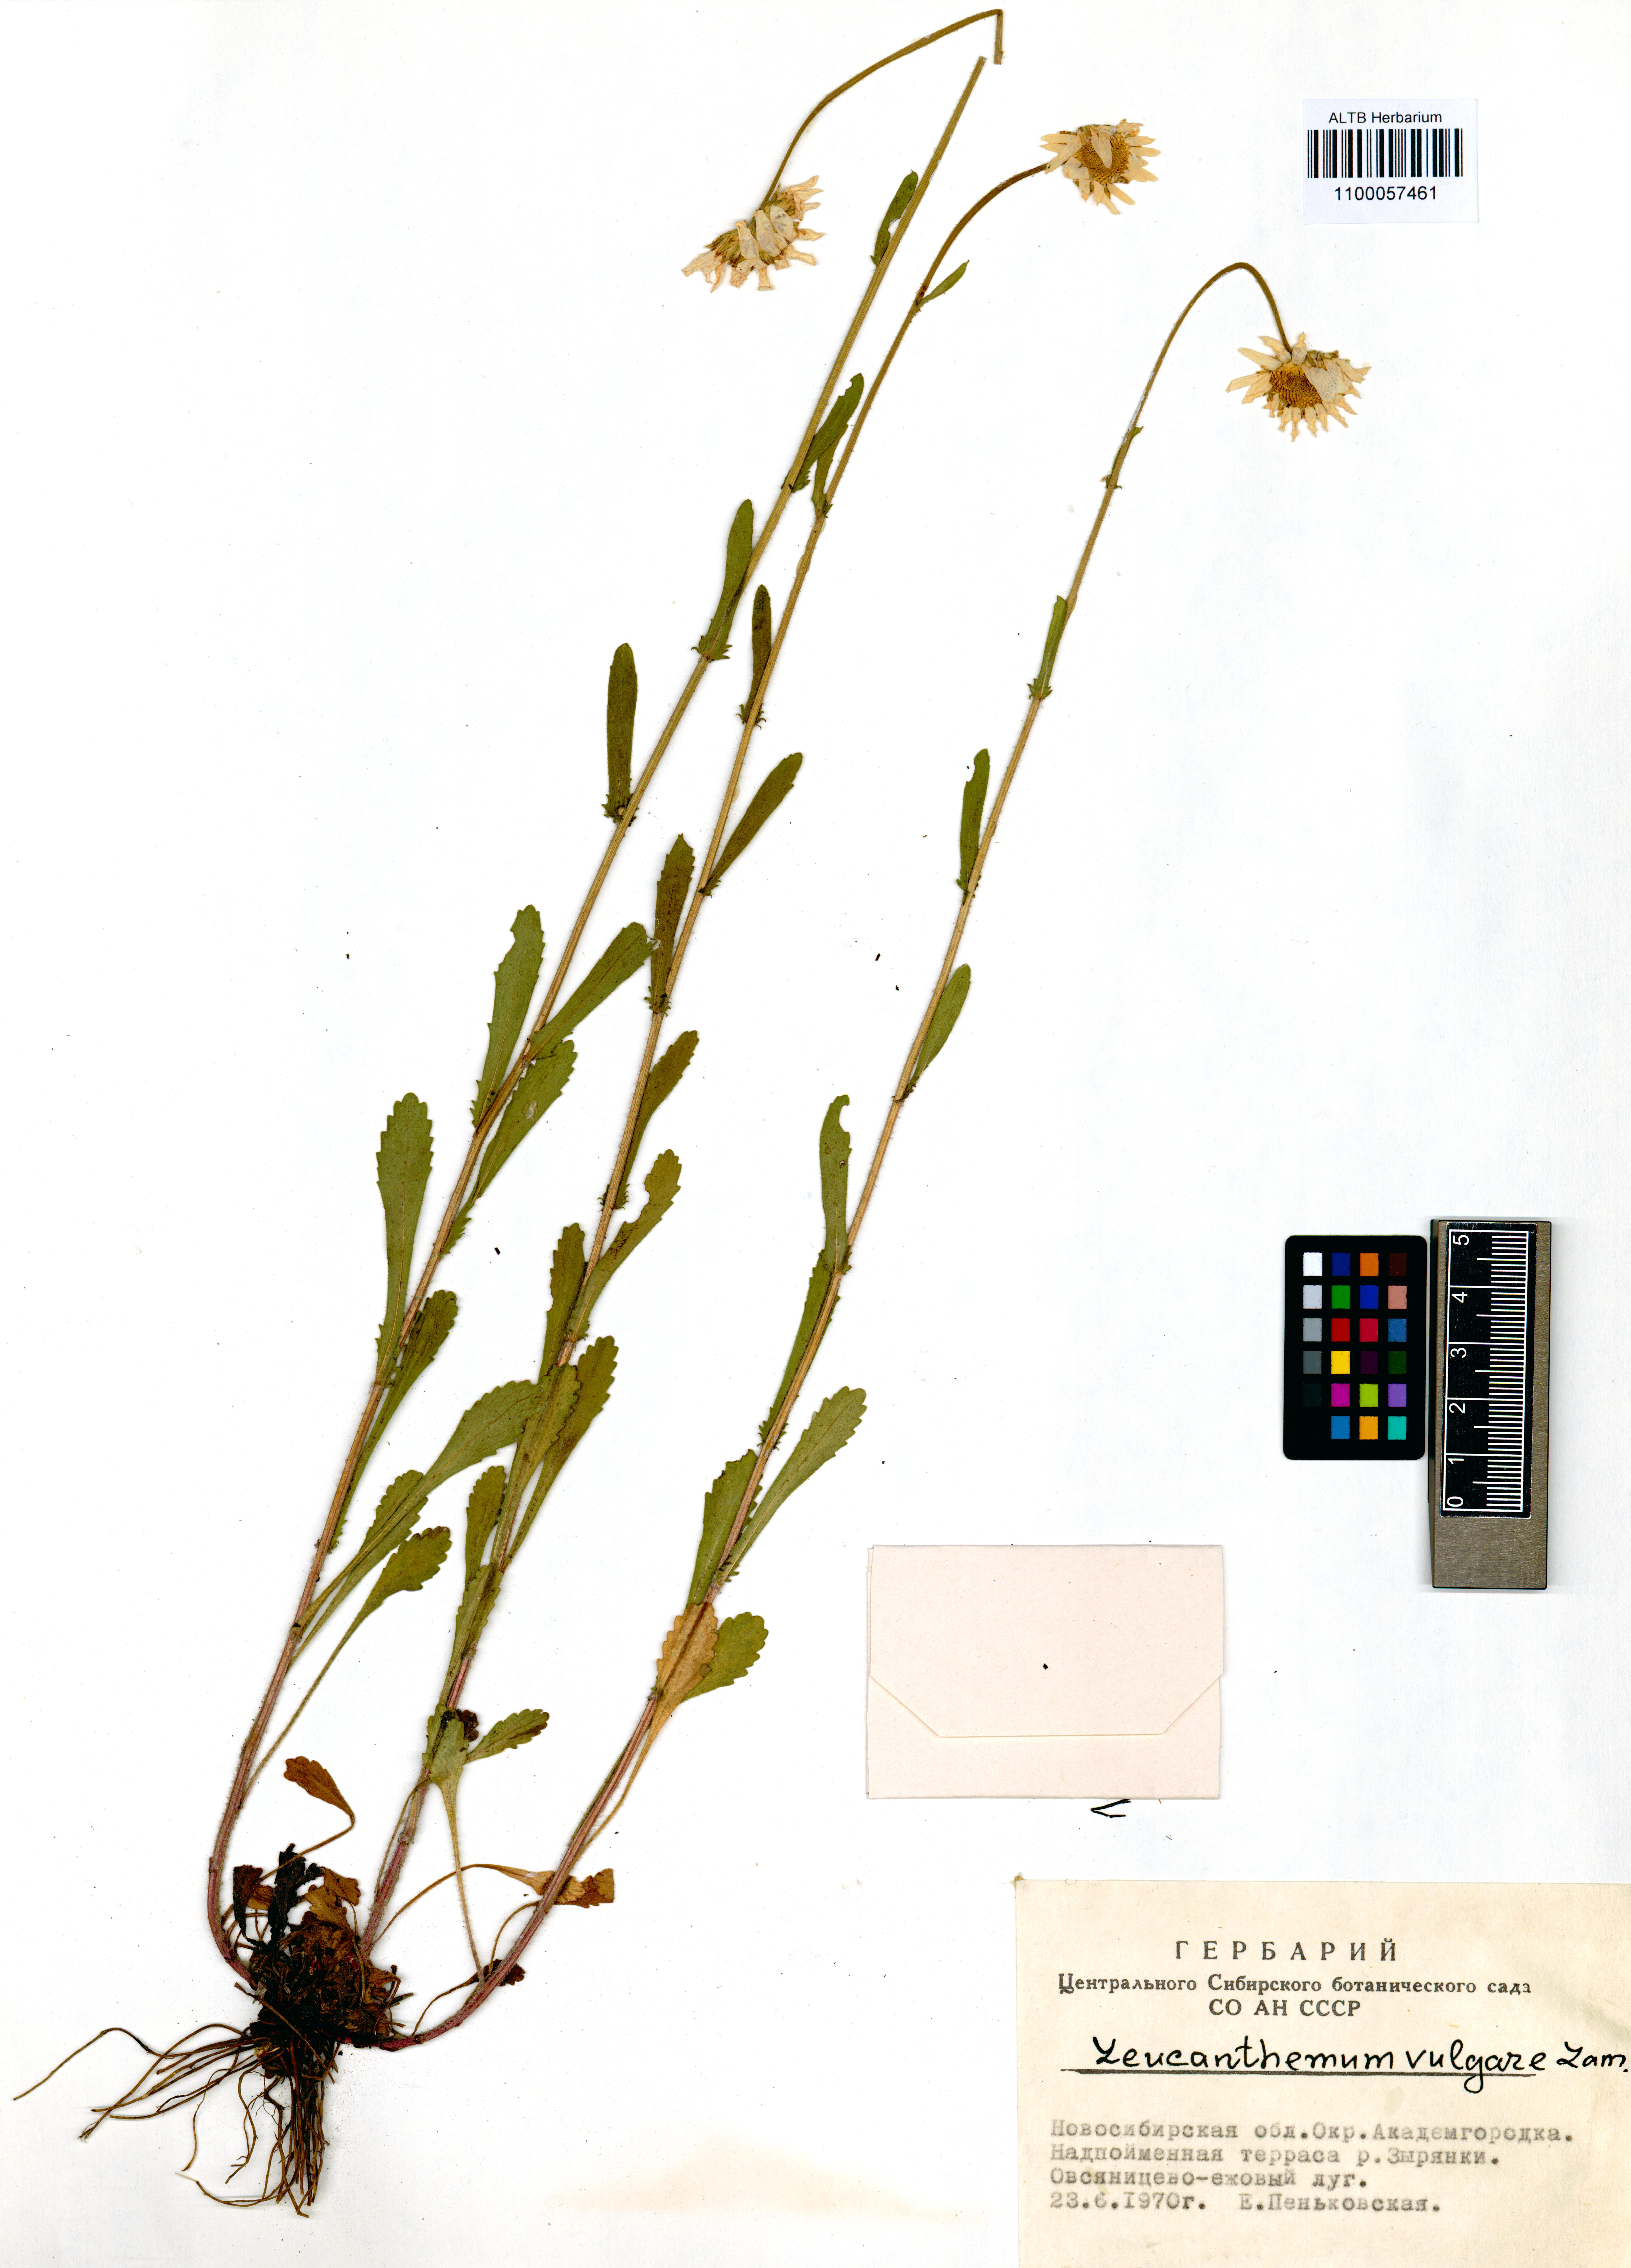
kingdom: Plantae
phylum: Tracheophyta
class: Magnoliopsida
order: Asterales
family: Asteraceae
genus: Leucanthemum
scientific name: Leucanthemum vulgare
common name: Oxeye daisy
